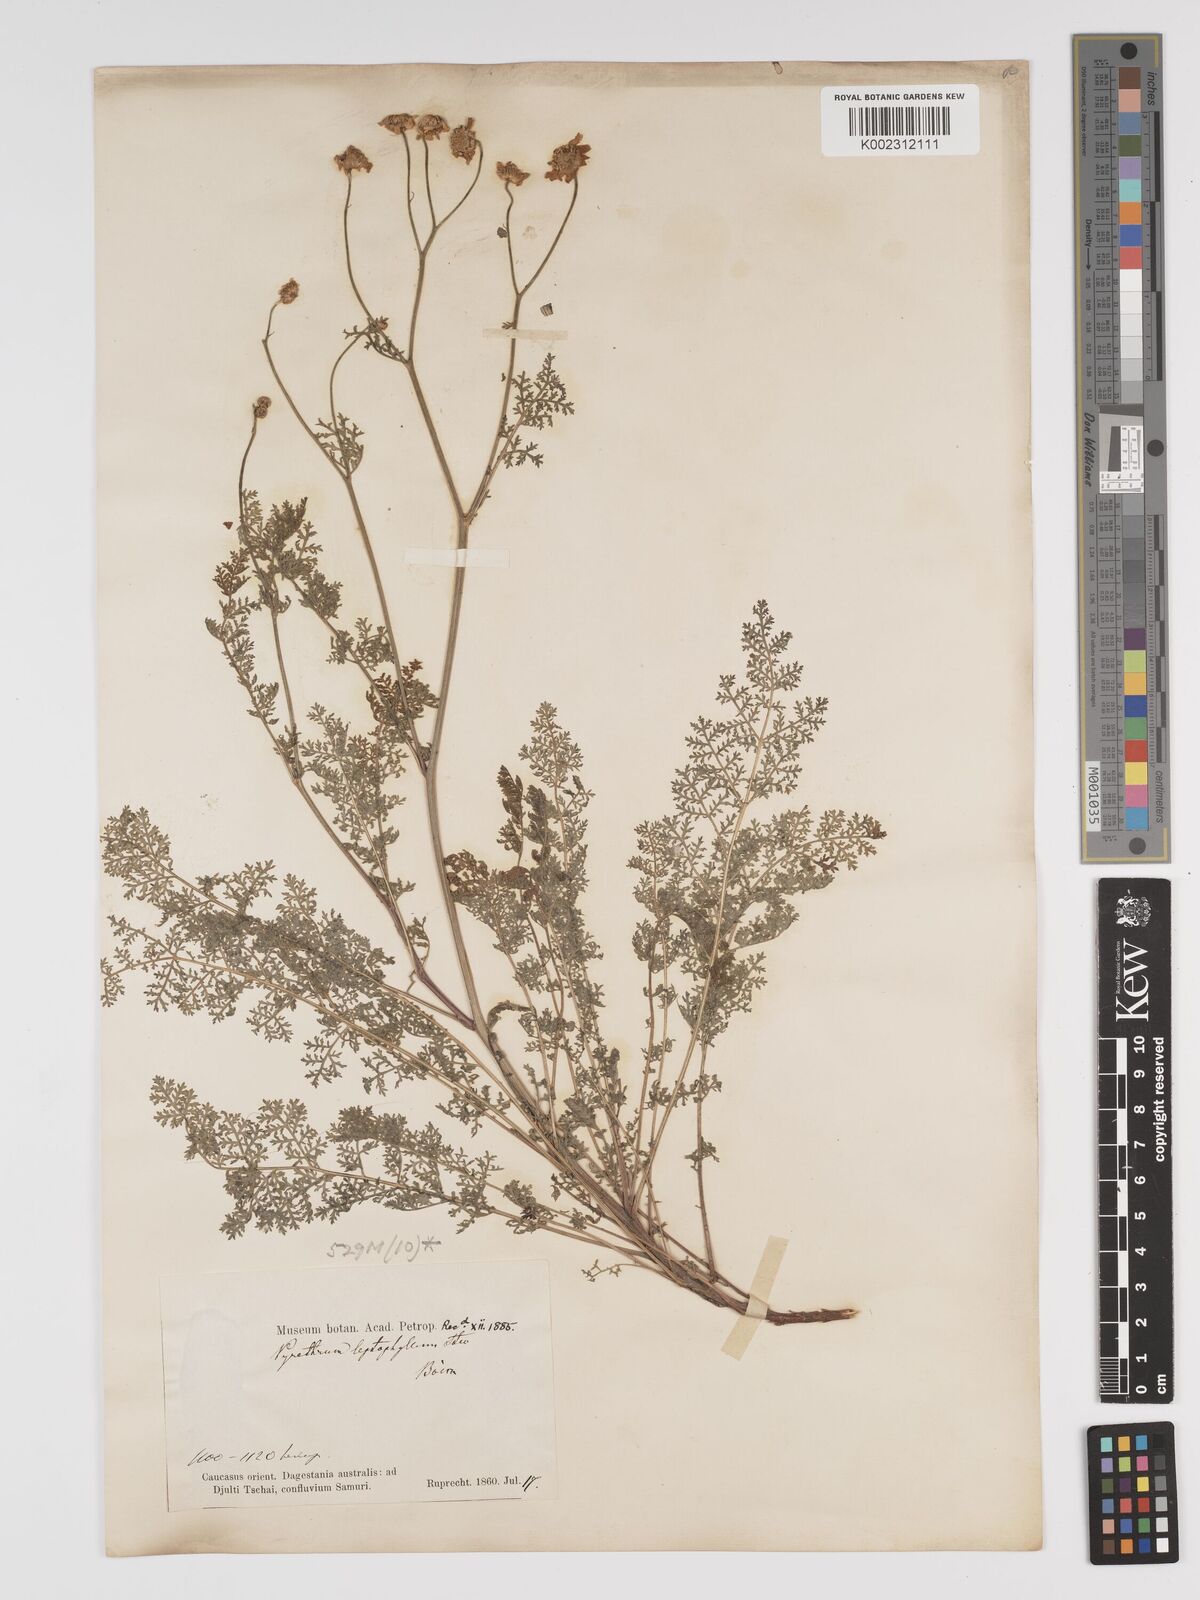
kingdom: Plantae
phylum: Tracheophyta
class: Magnoliopsida
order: Asterales
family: Asteraceae
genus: Tanacetum
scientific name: Tanacetum leptophyllum
